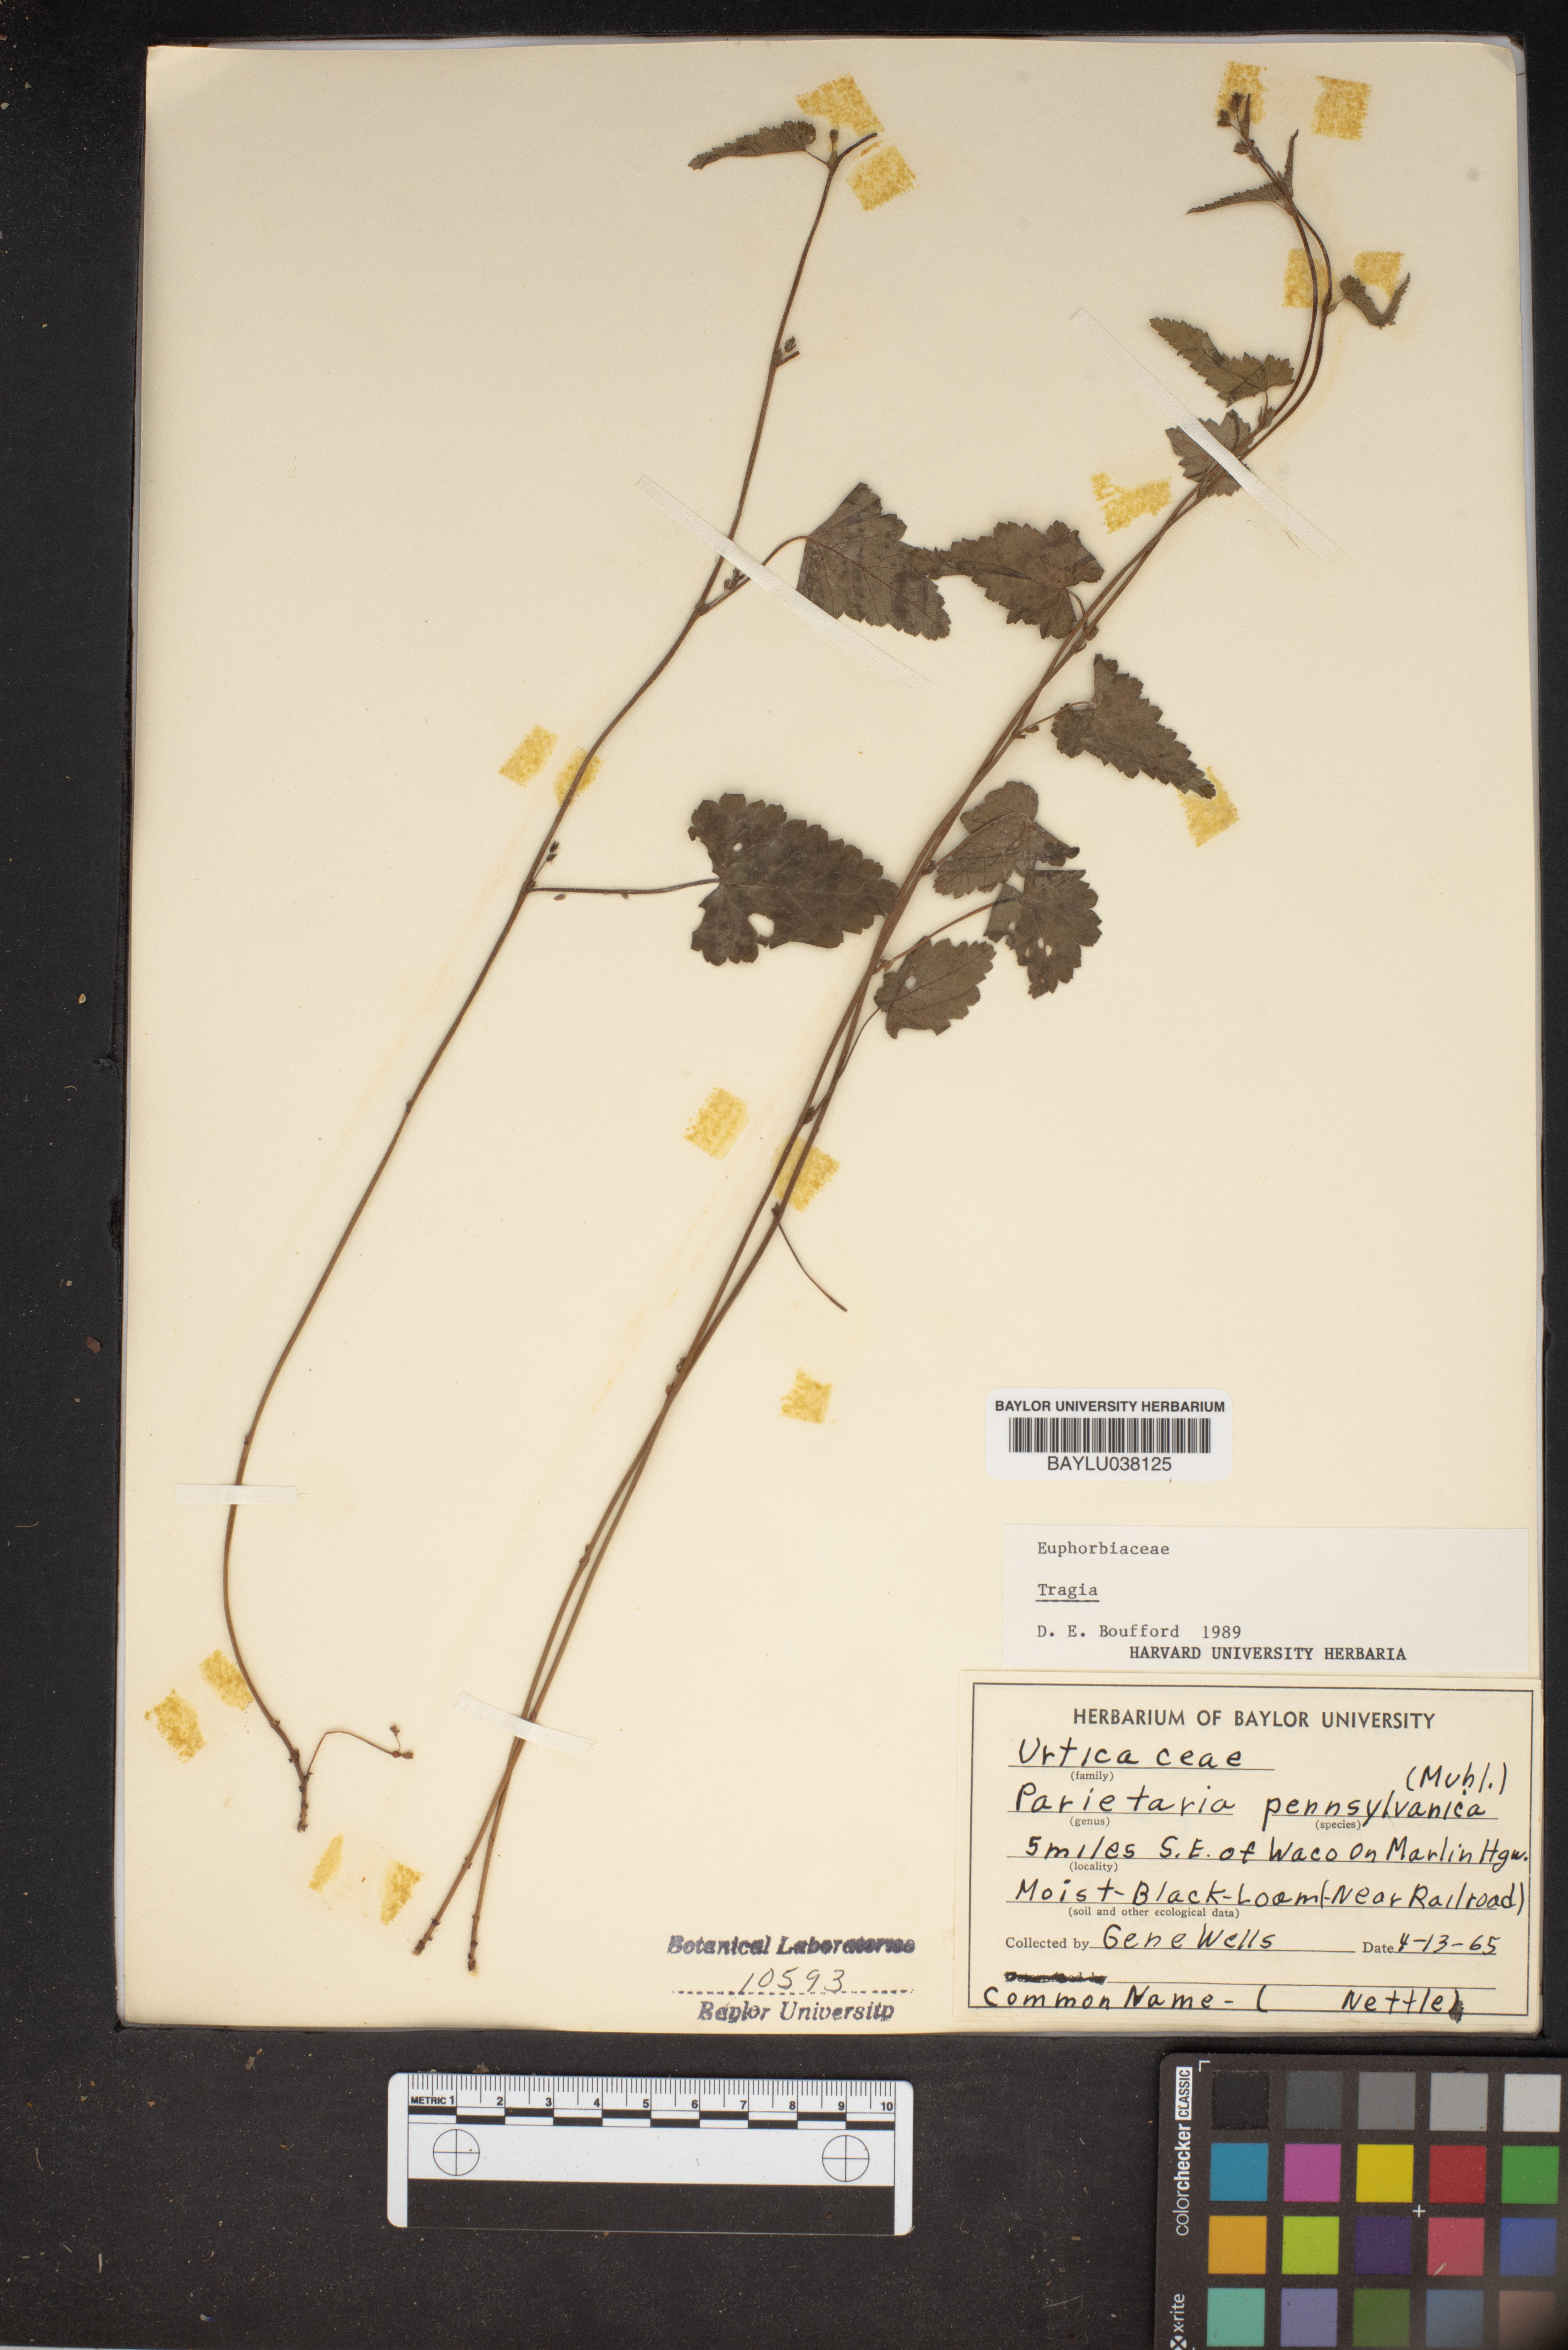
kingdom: Plantae
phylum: Tracheophyta
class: Magnoliopsida
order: Malpighiales
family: Euphorbiaceae
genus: Tragia
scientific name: Tragia
